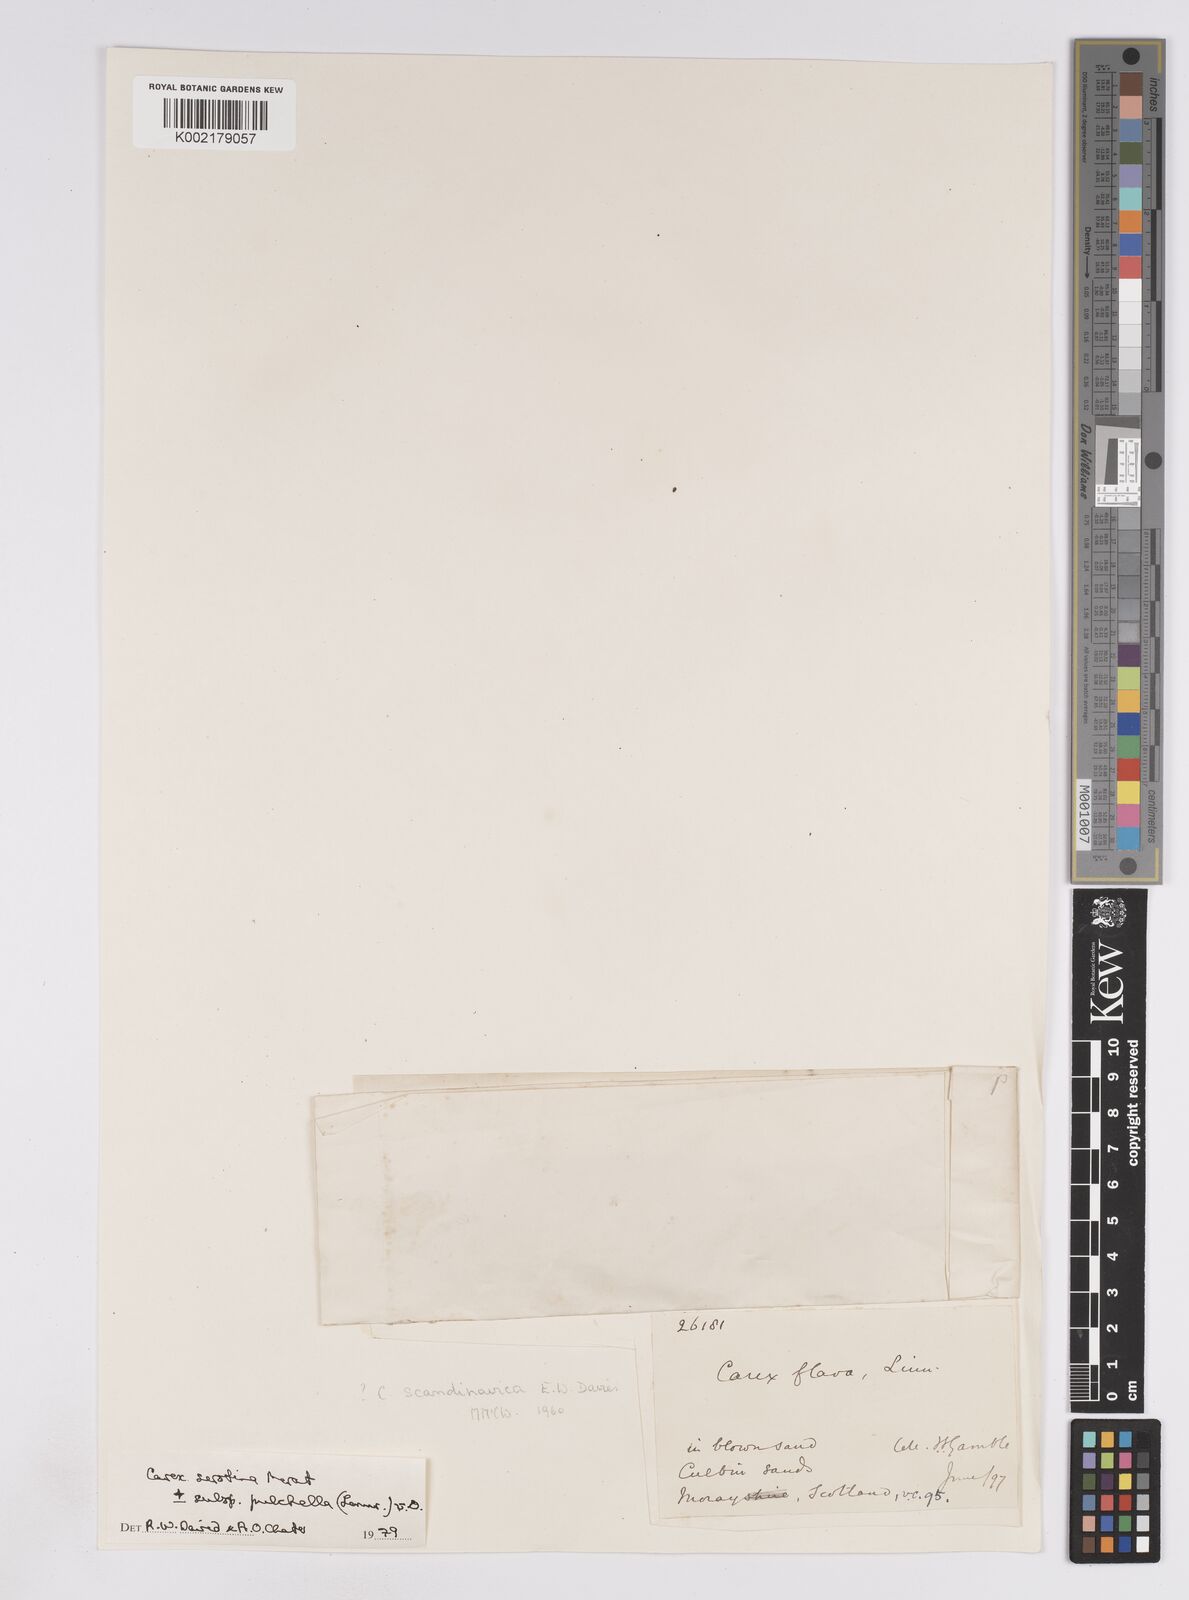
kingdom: Plantae
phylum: Tracheophyta
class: Liliopsida
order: Poales
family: Cyperaceae
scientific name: Cyperaceae
